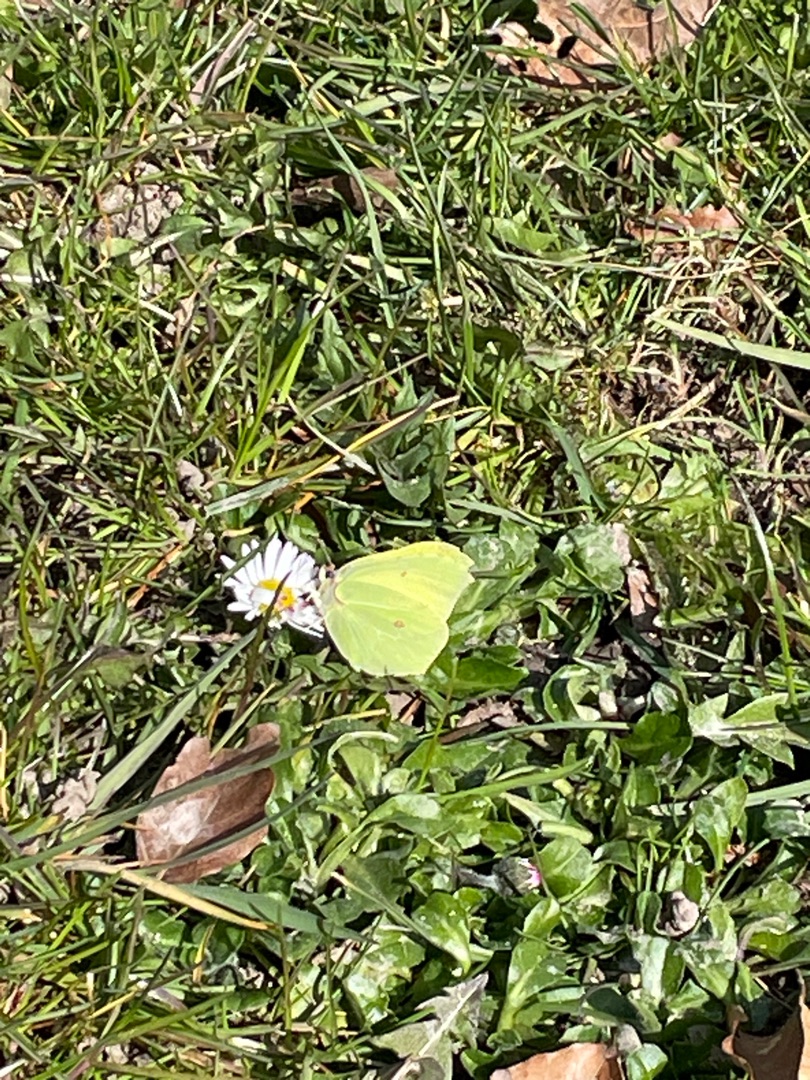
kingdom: Animalia
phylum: Arthropoda
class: Insecta
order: Lepidoptera
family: Pieridae
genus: Gonepteryx
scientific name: Gonepteryx rhamni
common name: Citronsommerfugl
